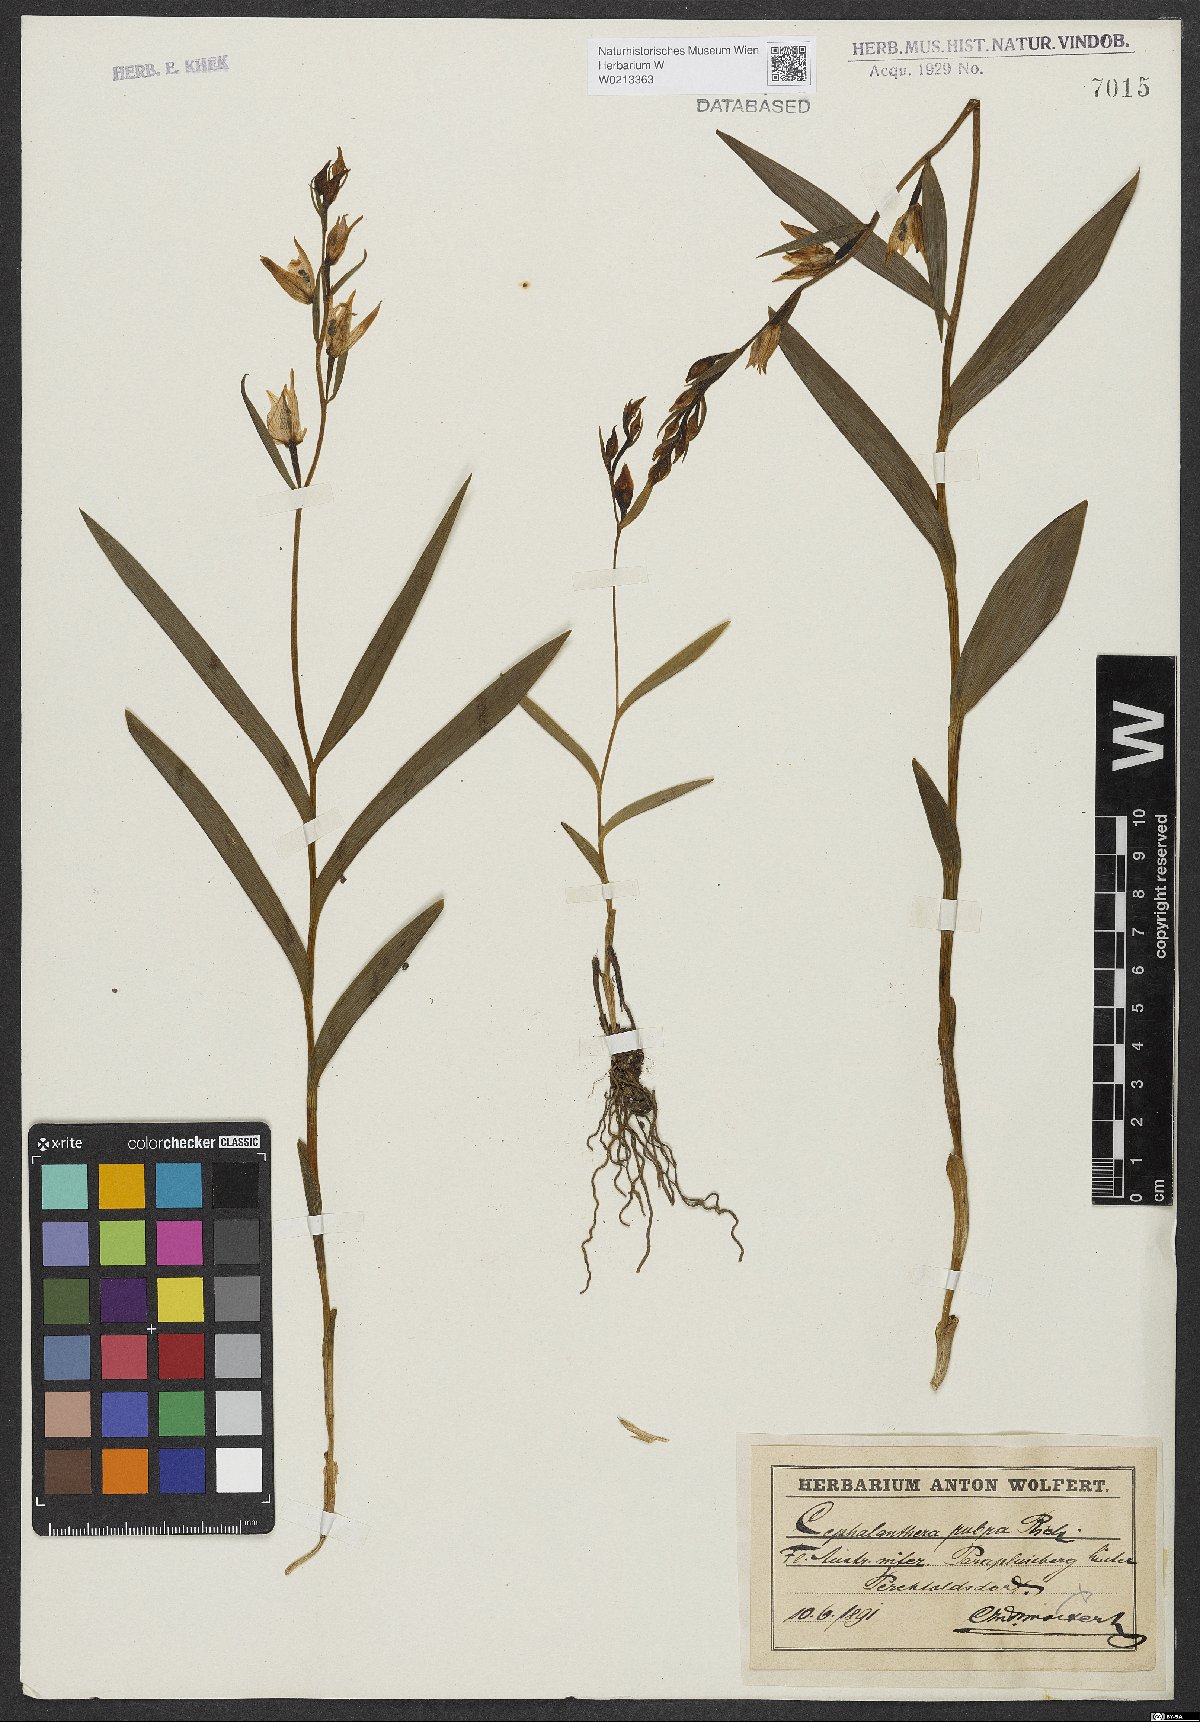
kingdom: Plantae
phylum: Tracheophyta
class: Liliopsida
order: Asparagales
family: Orchidaceae
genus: Cephalanthera
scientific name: Cephalanthera rubra
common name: Red helleborine
